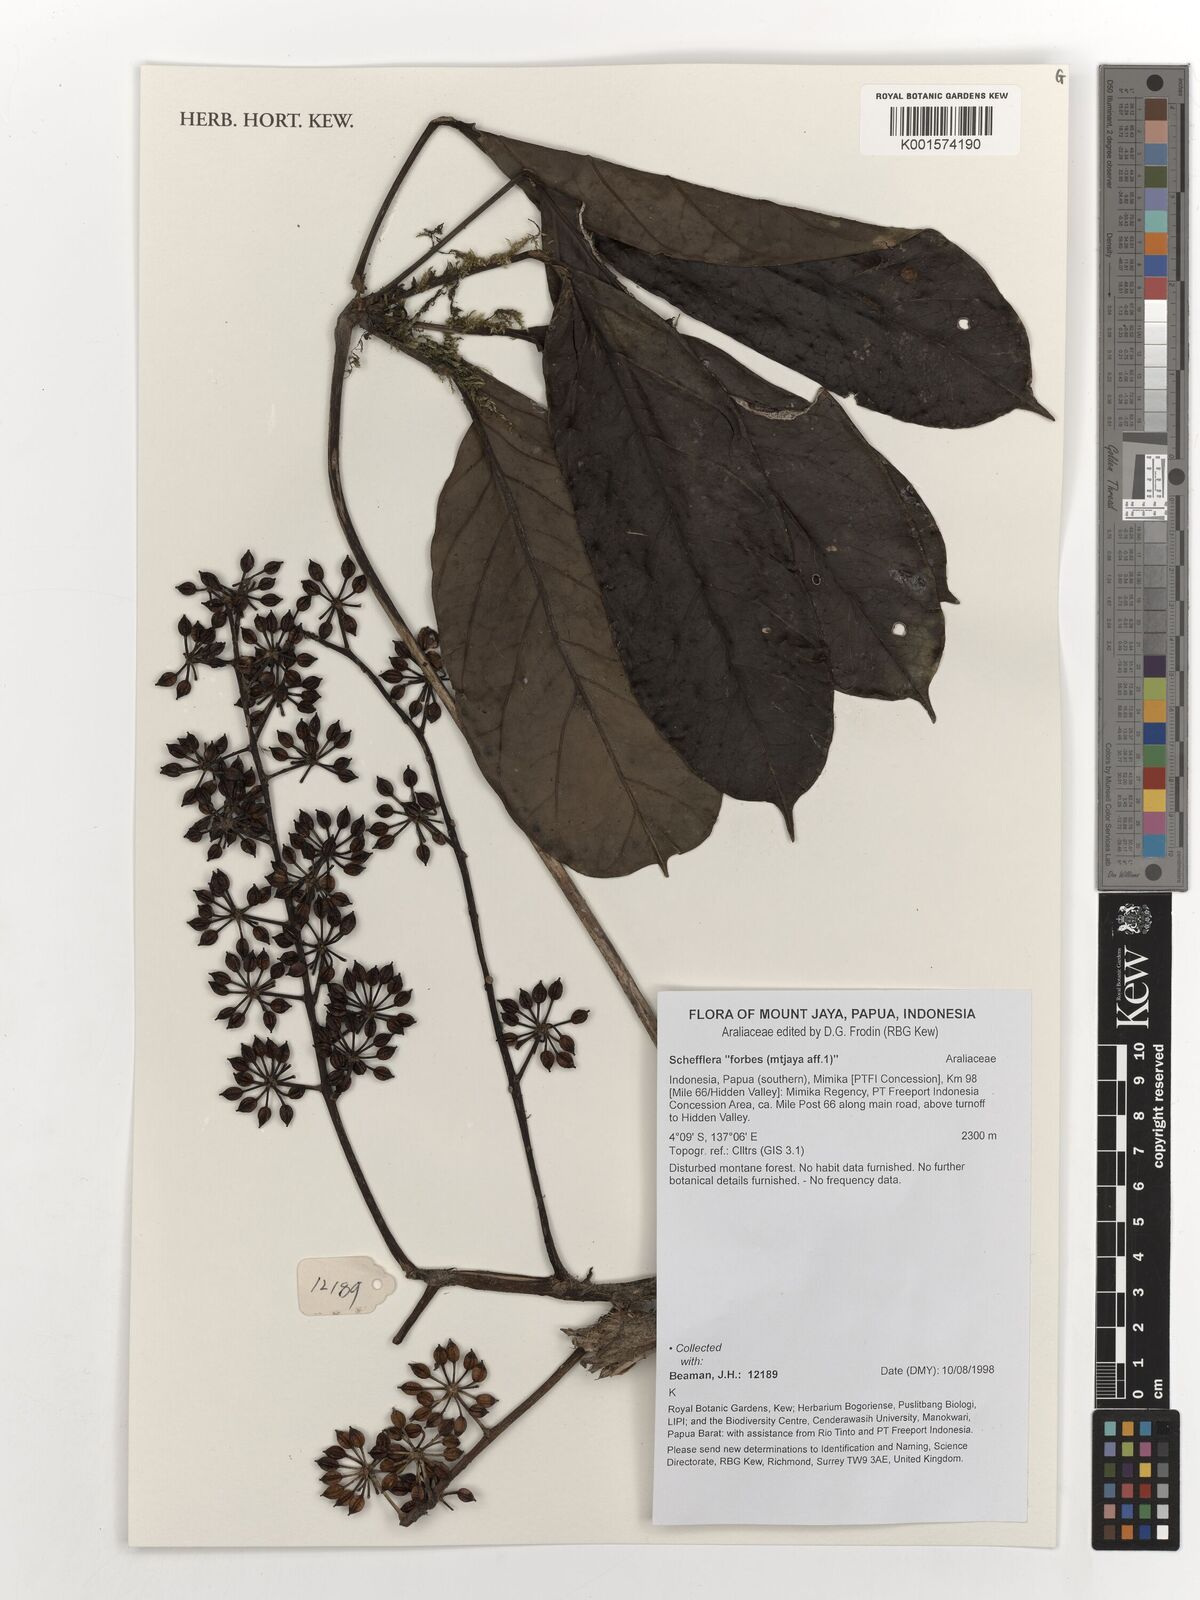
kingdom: Plantae
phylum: Tracheophyta
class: Magnoliopsida
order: Apiales
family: Araliaceae
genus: Schefflera
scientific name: Schefflera
